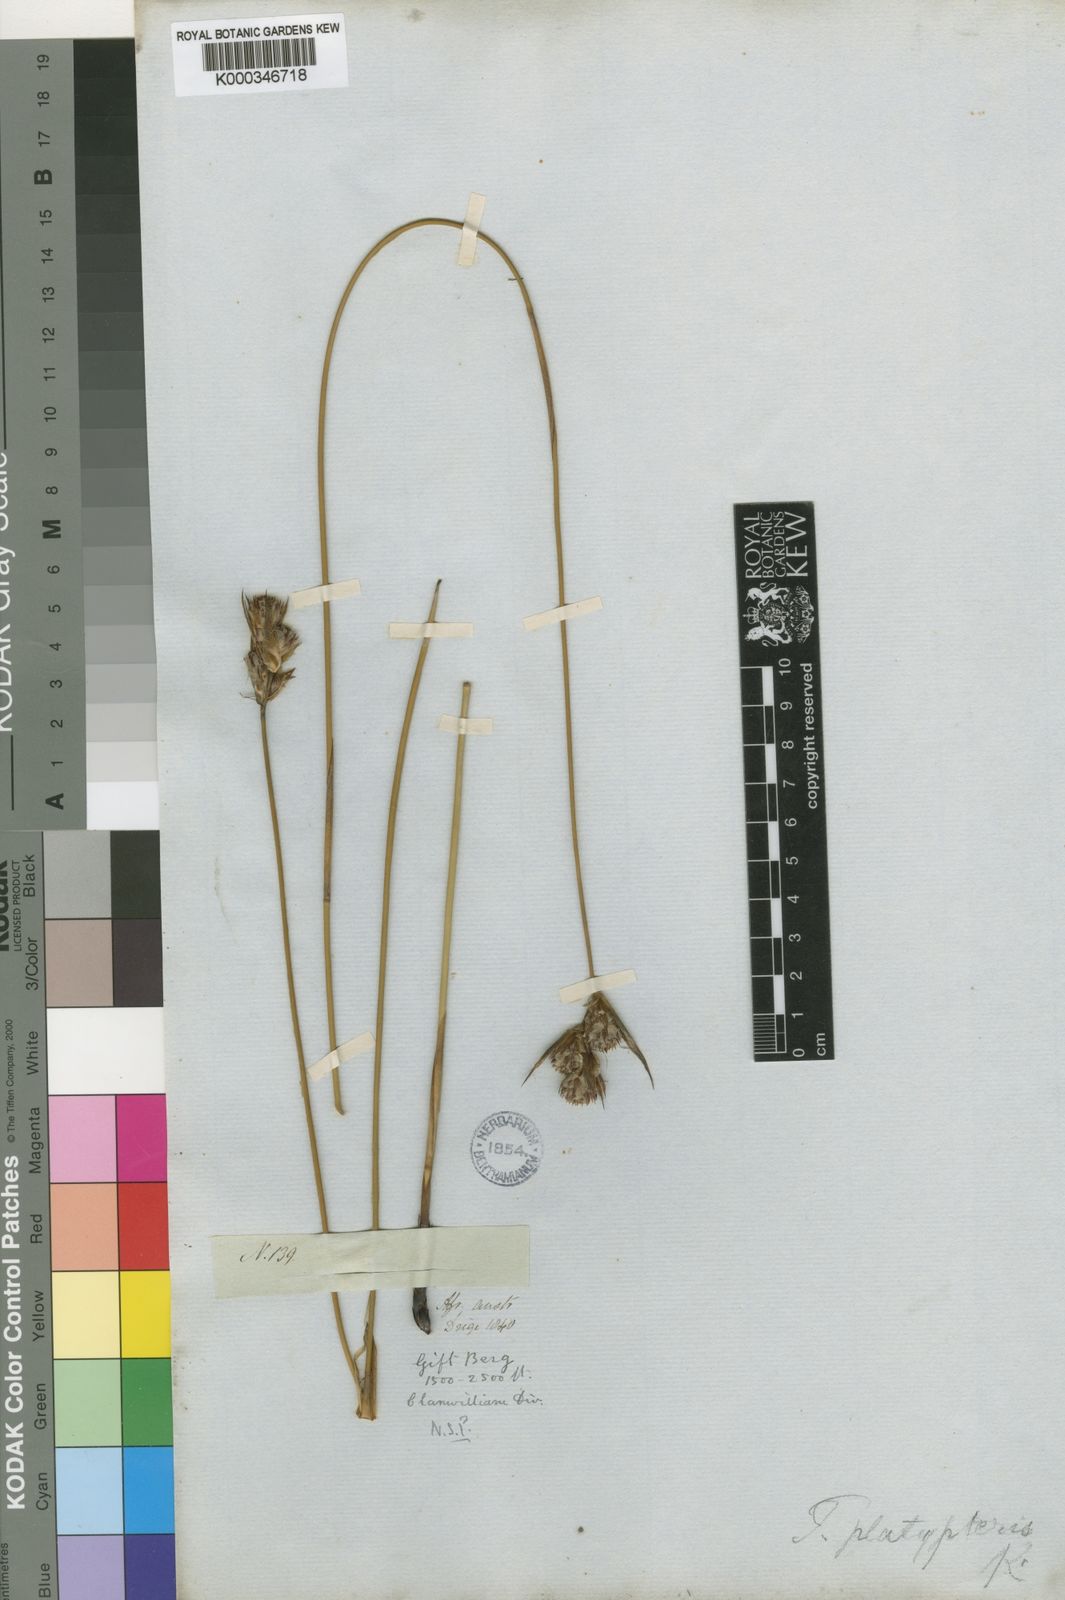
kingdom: Plantae
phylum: Tracheophyta
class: Liliopsida
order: Poales
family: Restionaceae
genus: Thamnochortus
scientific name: Thamnochortus platypteris
